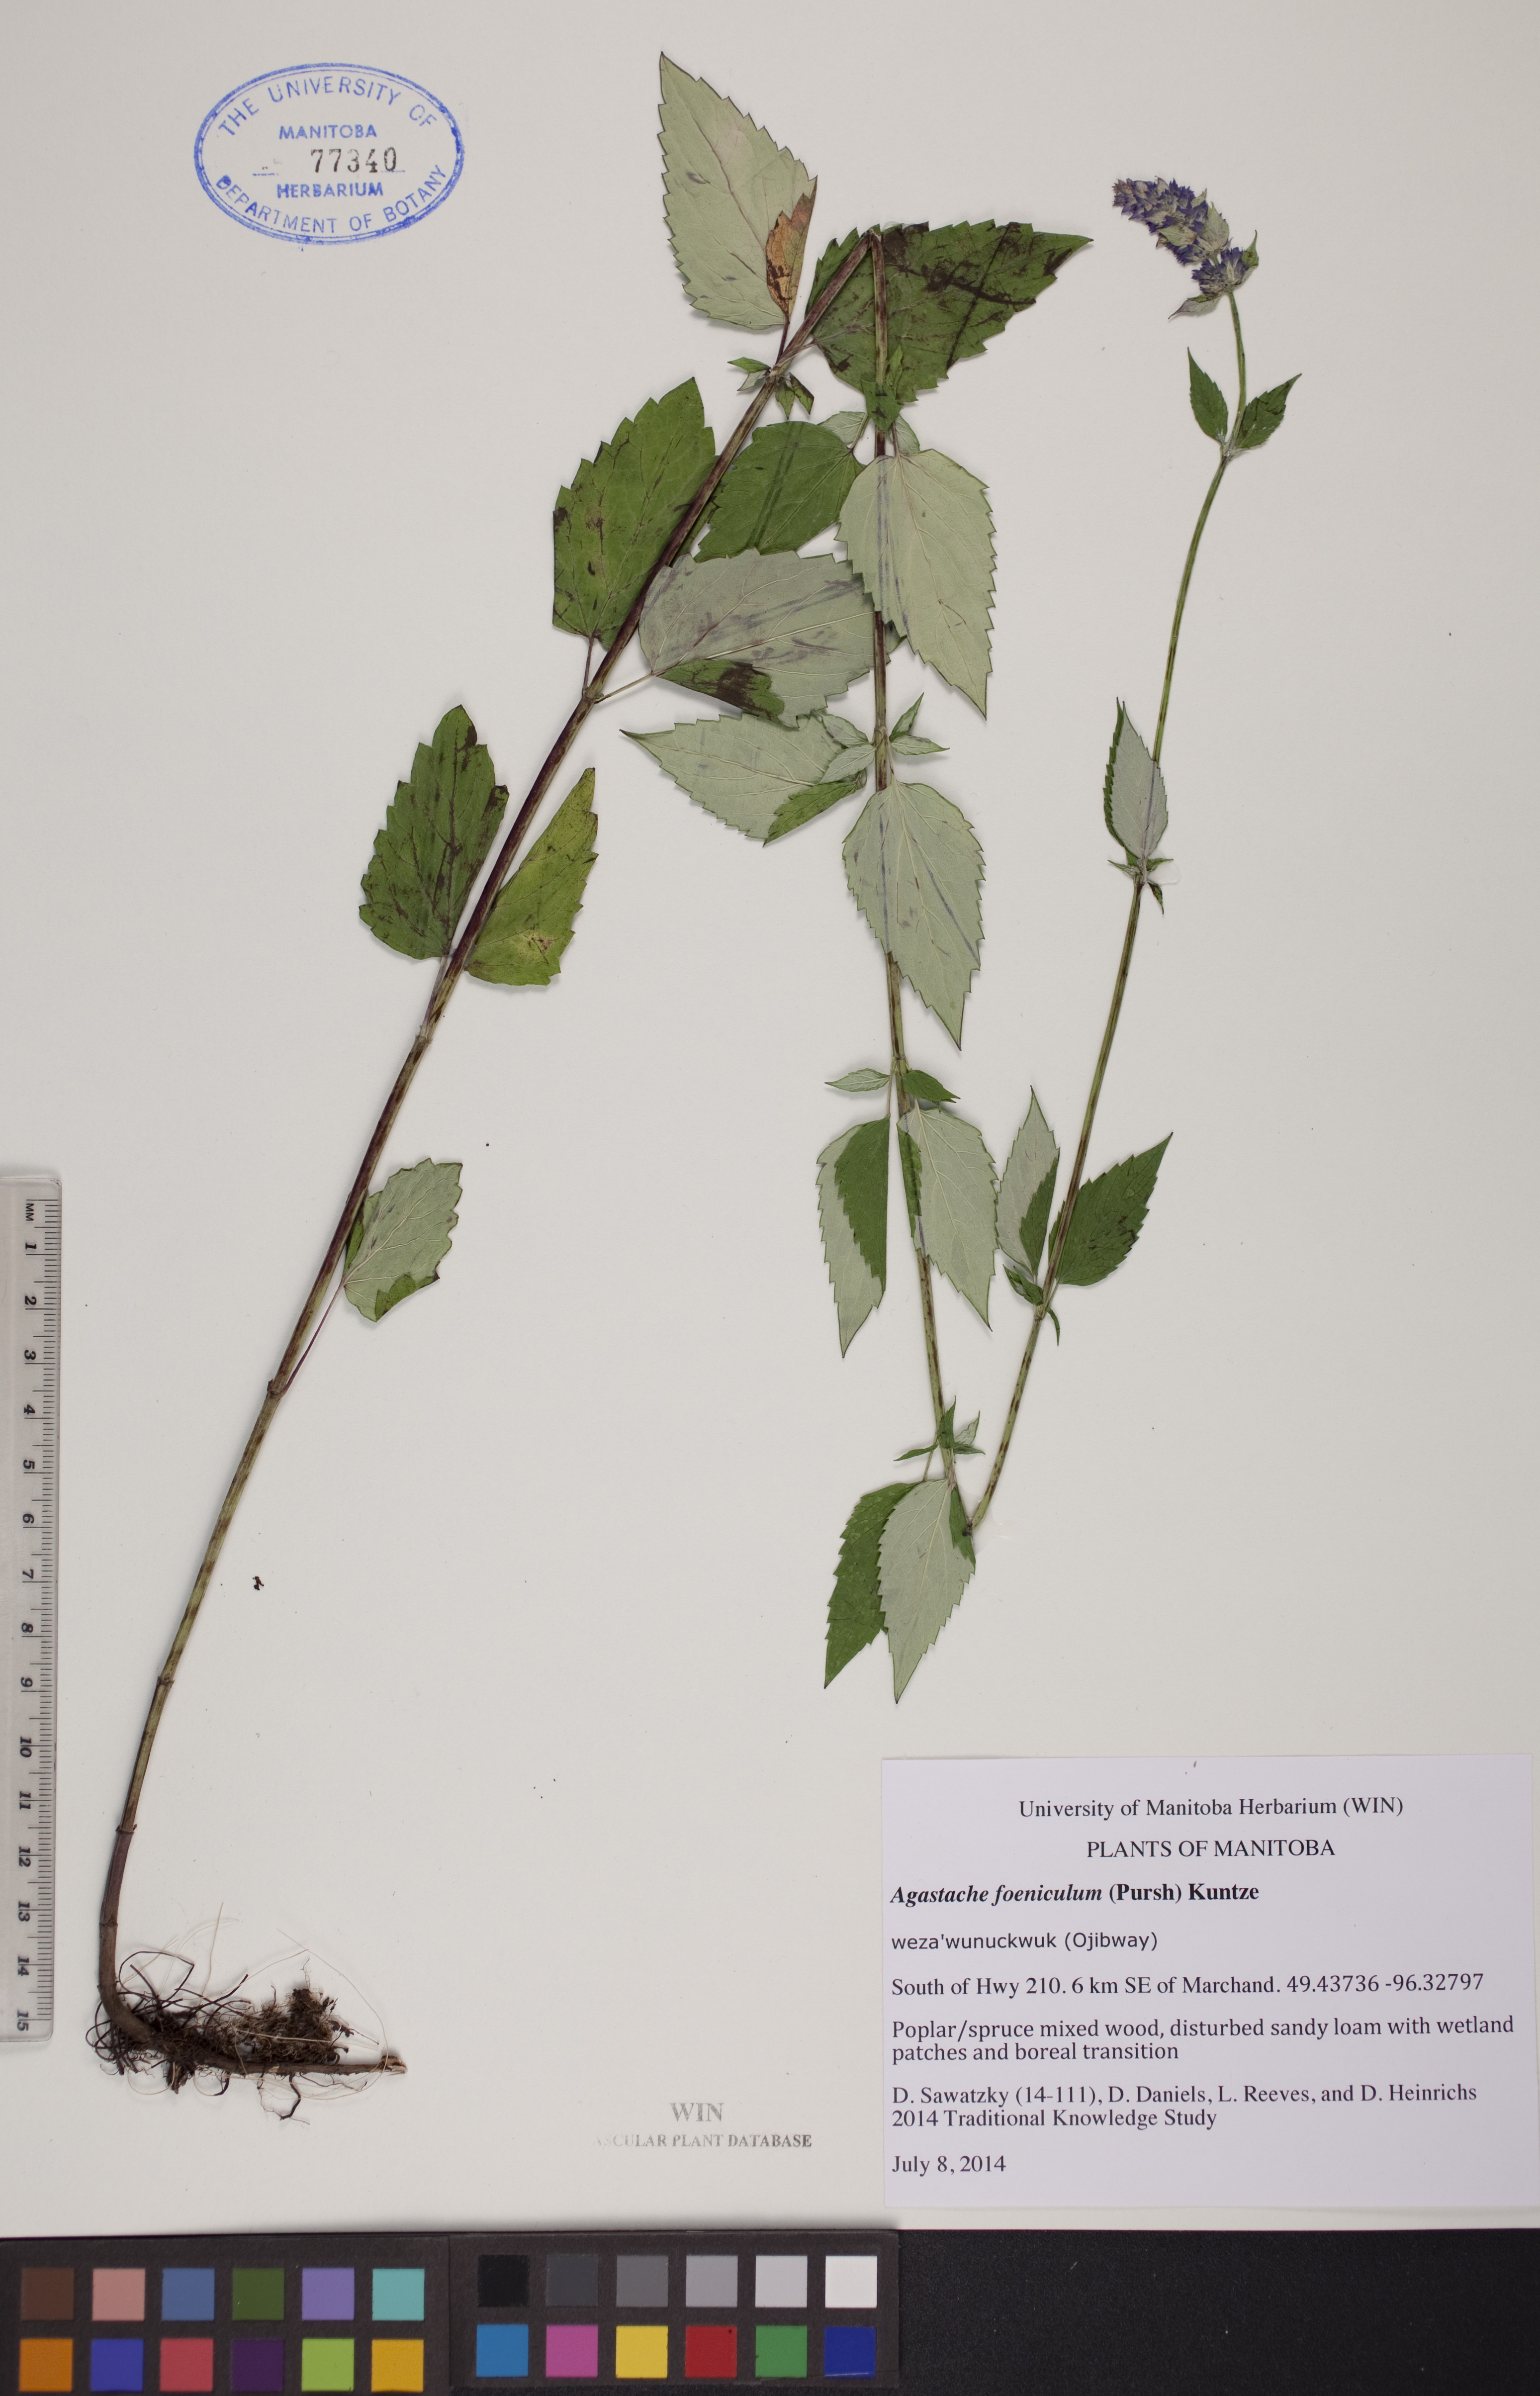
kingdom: Plantae
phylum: Tracheophyta
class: Magnoliopsida
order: Lamiales
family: Lamiaceae
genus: Agastache
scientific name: Agastache foeniculum
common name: Anise hyssop
